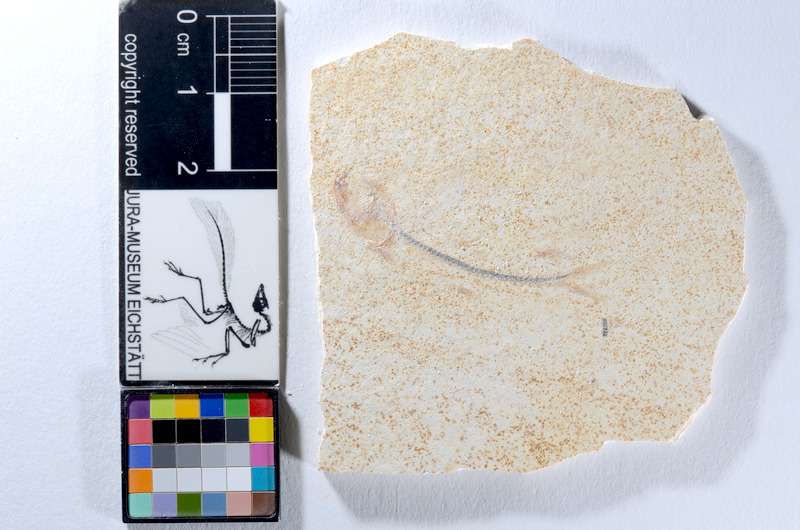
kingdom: Animalia
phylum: Chordata
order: Salmoniformes
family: Orthogonikleithridae
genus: Orthogonikleithrus
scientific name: Orthogonikleithrus hoelli
